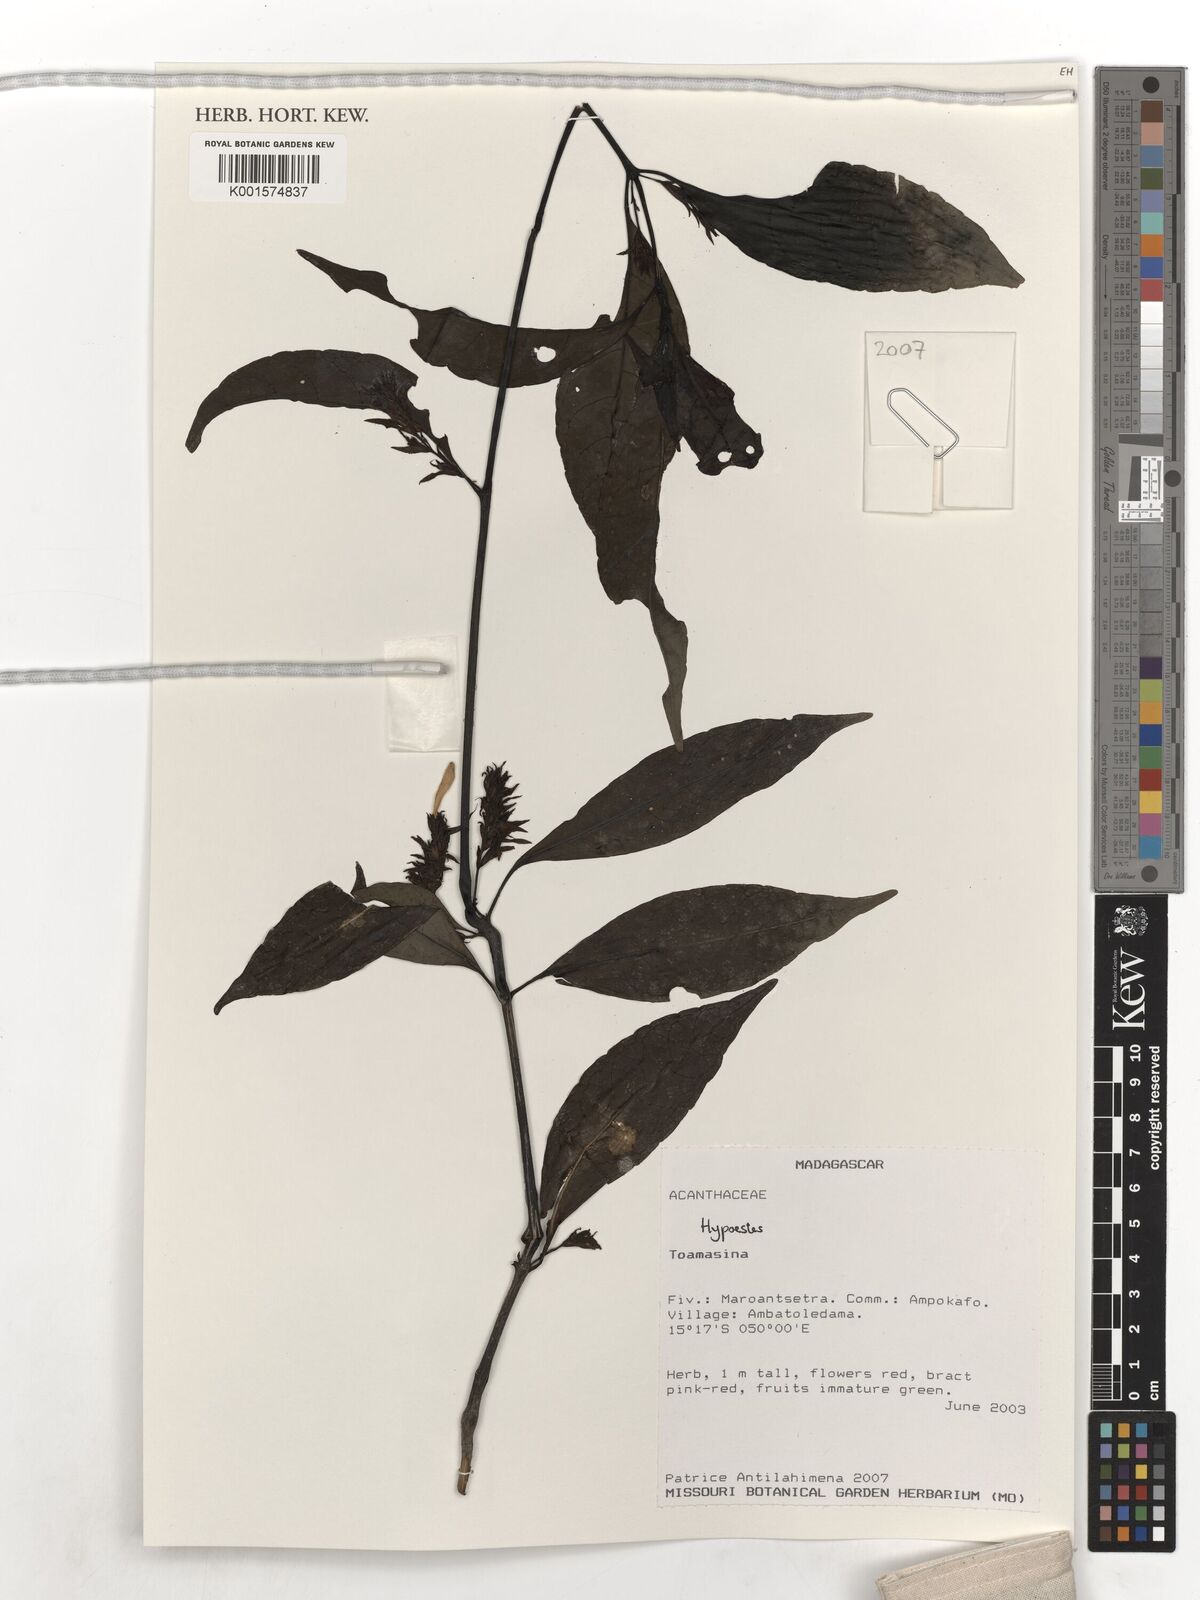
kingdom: Plantae
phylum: Tracheophyta
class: Magnoliopsida
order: Lamiales
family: Acanthaceae
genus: Hypoestes
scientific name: Hypoestes
